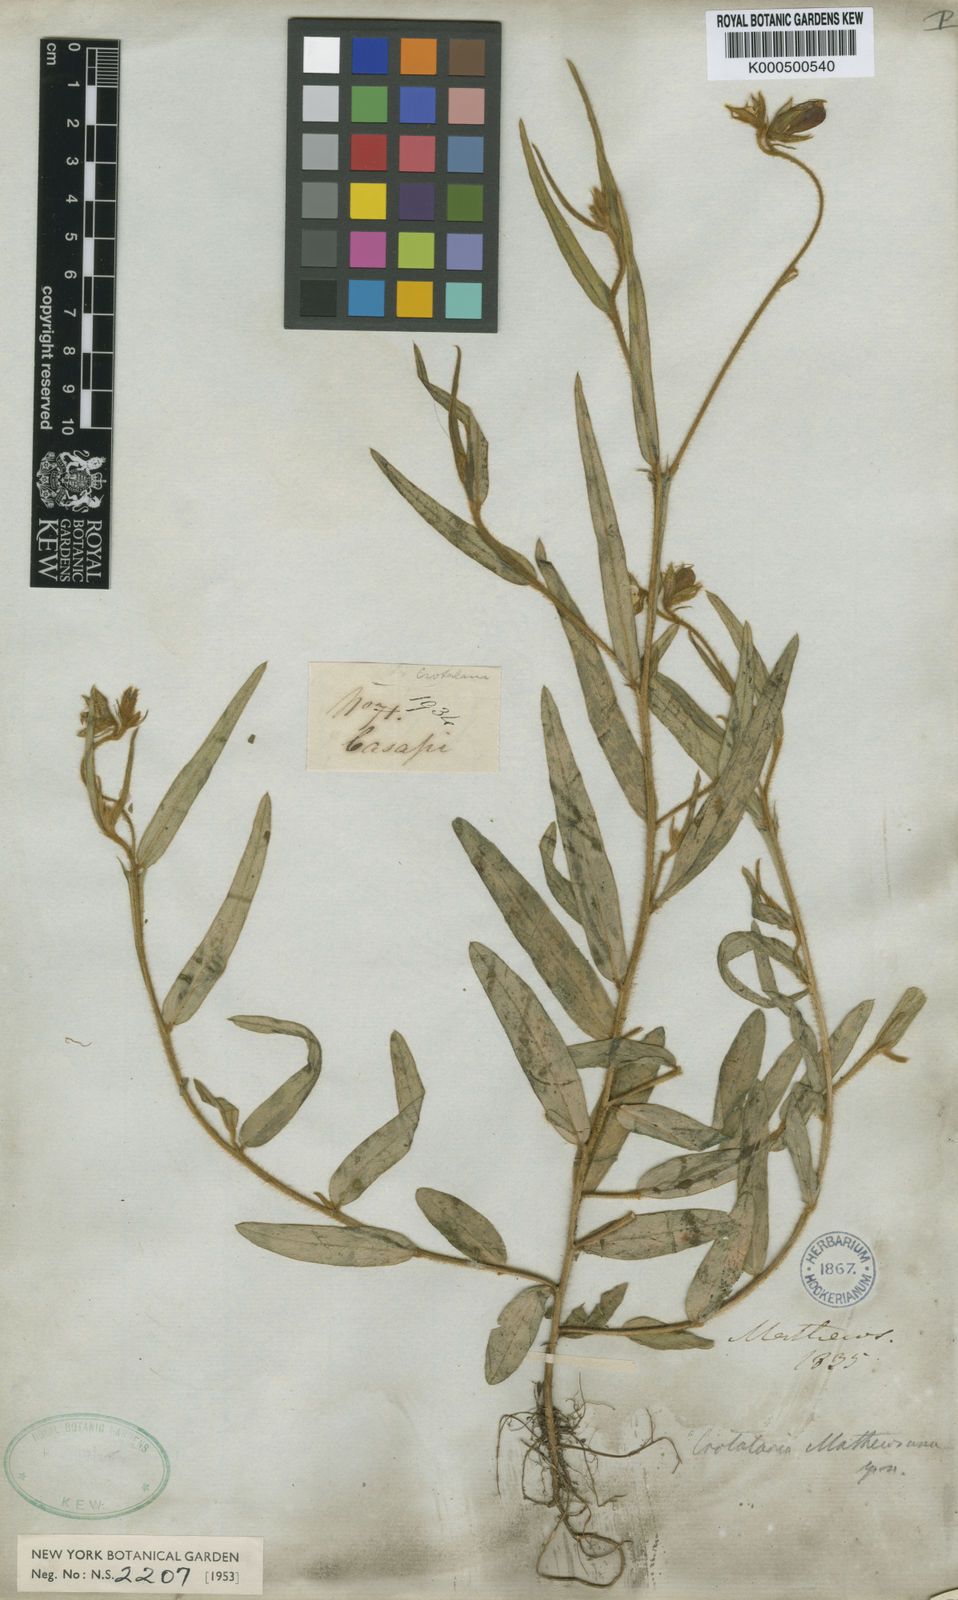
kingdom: Plantae
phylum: Tracheophyta
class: Magnoliopsida
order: Fabales
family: Fabaceae
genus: Crotalaria
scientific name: Crotalaria sagittalis
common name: Arrowhead rattlebox
